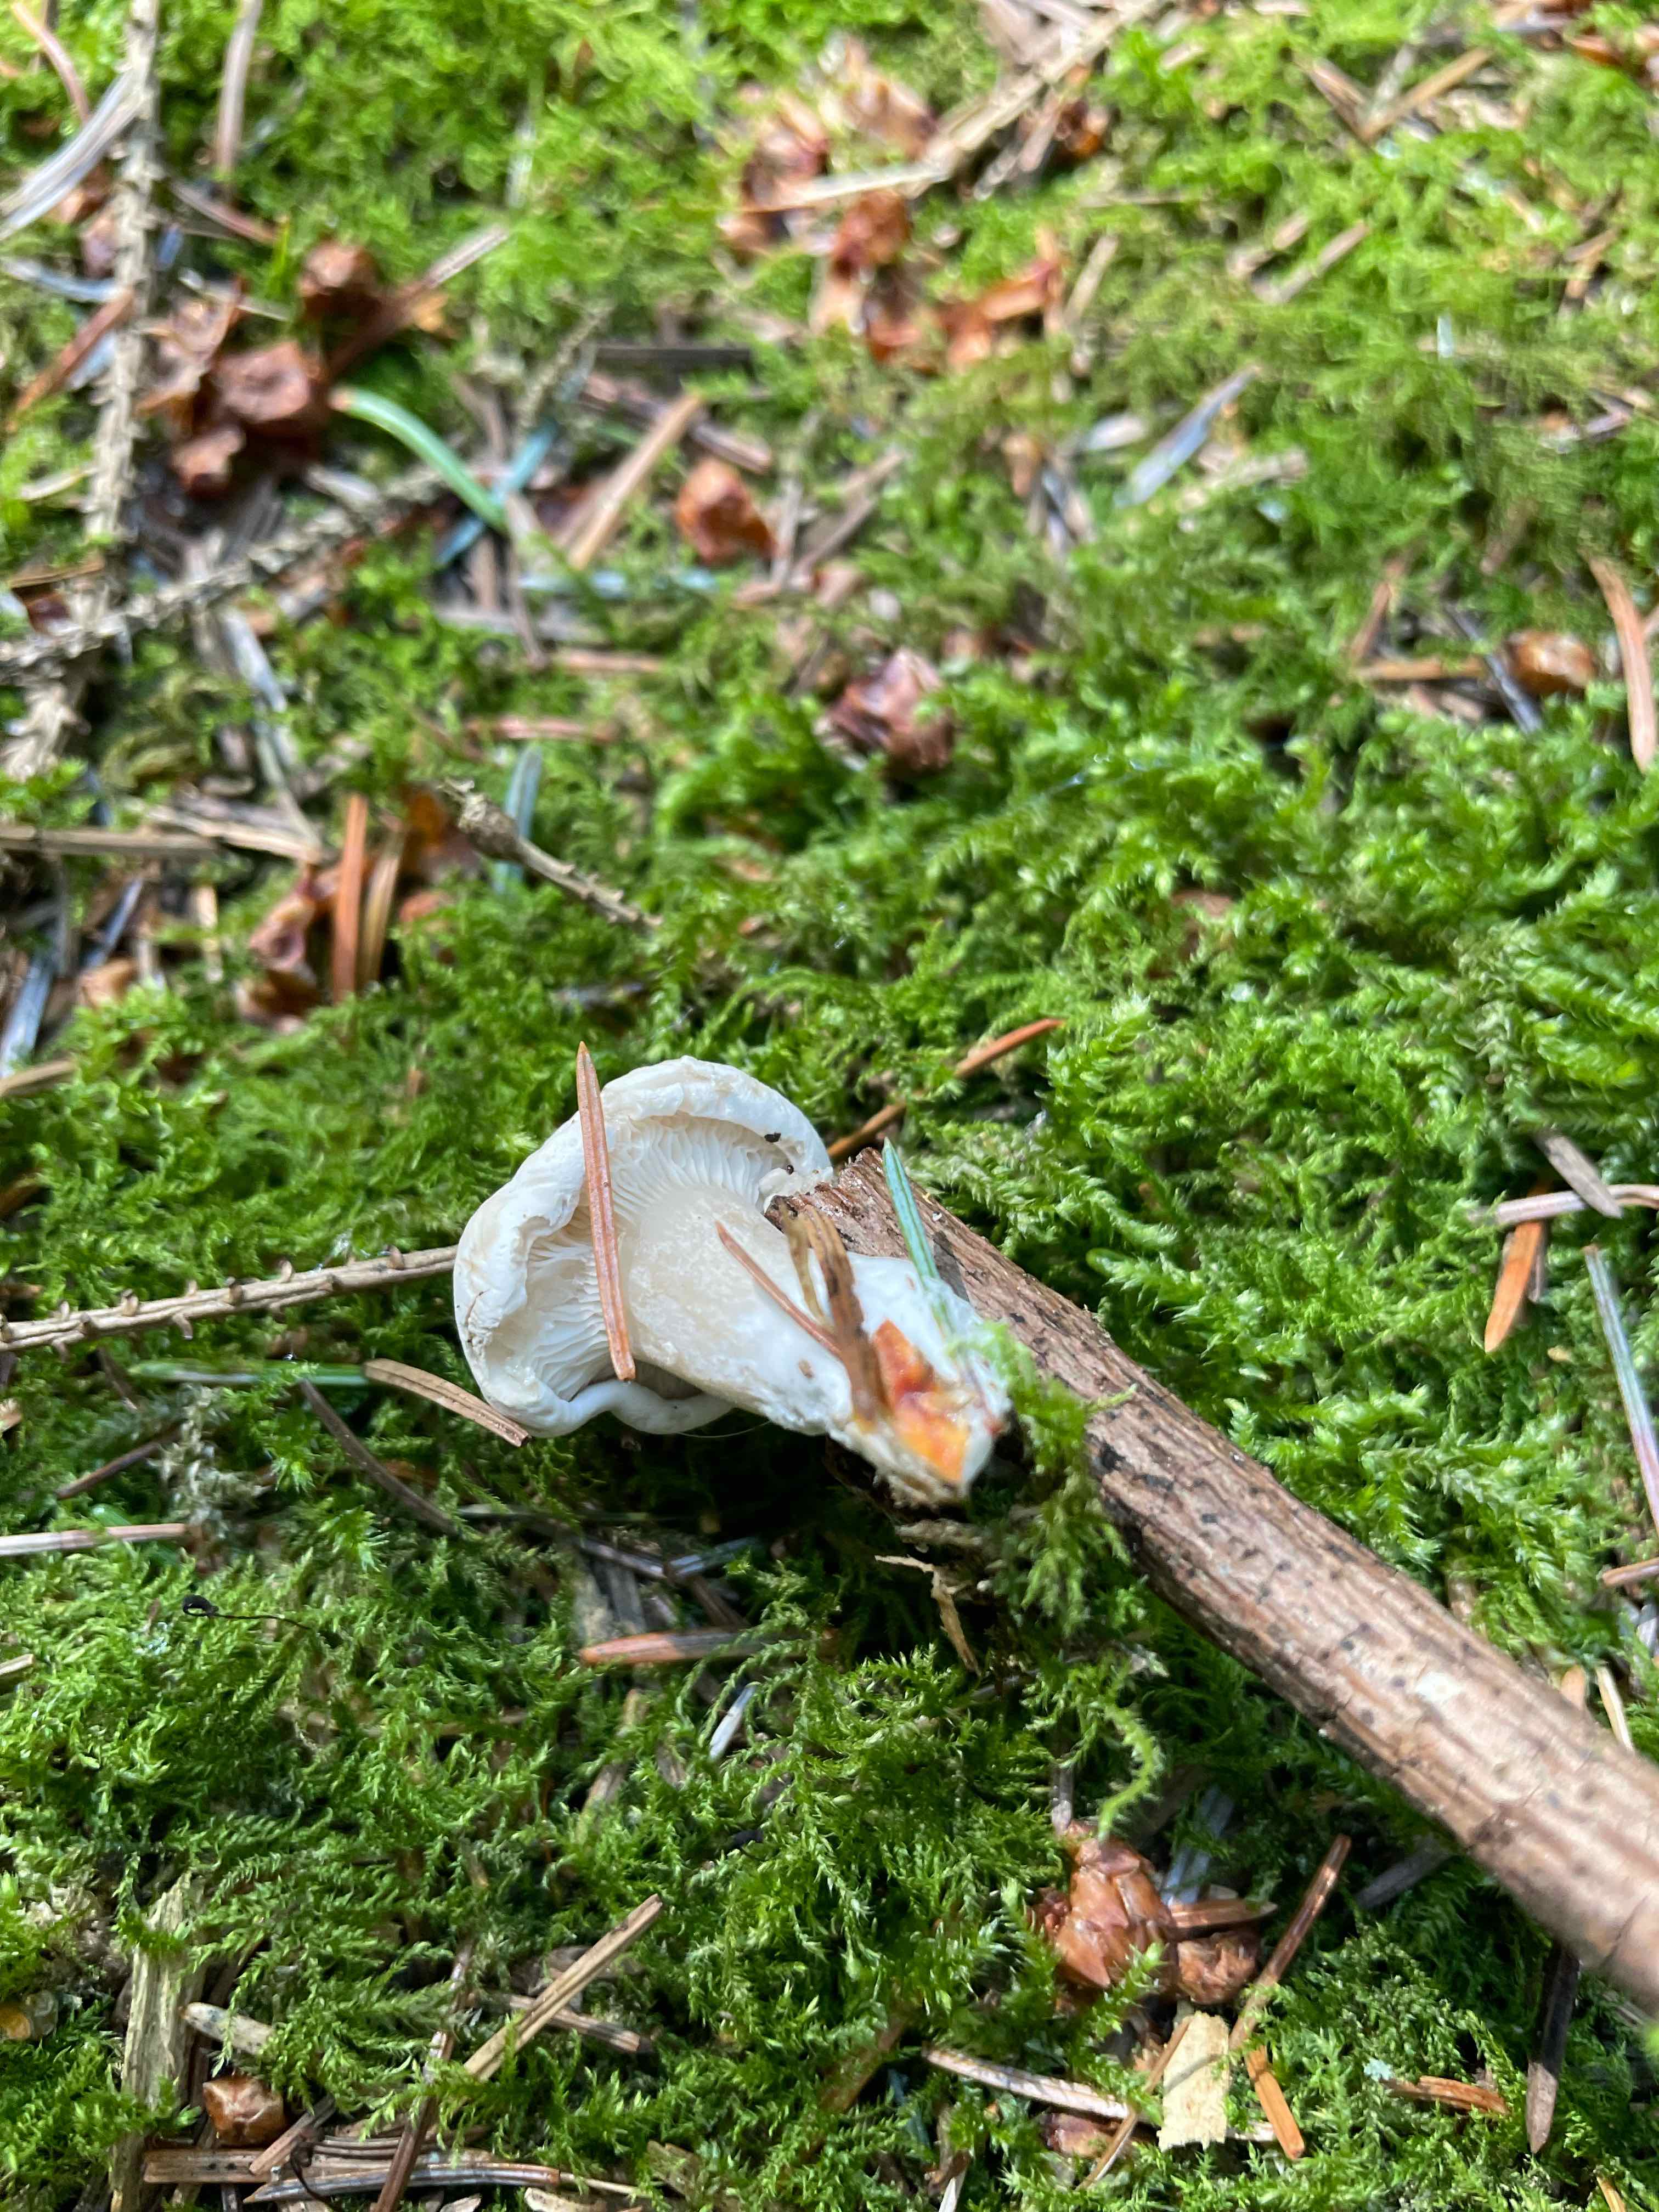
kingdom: Fungi
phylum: Basidiomycota
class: Agaricomycetes
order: Agaricales
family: Entolomataceae
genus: Clitopilus
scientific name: Clitopilus prunulus
